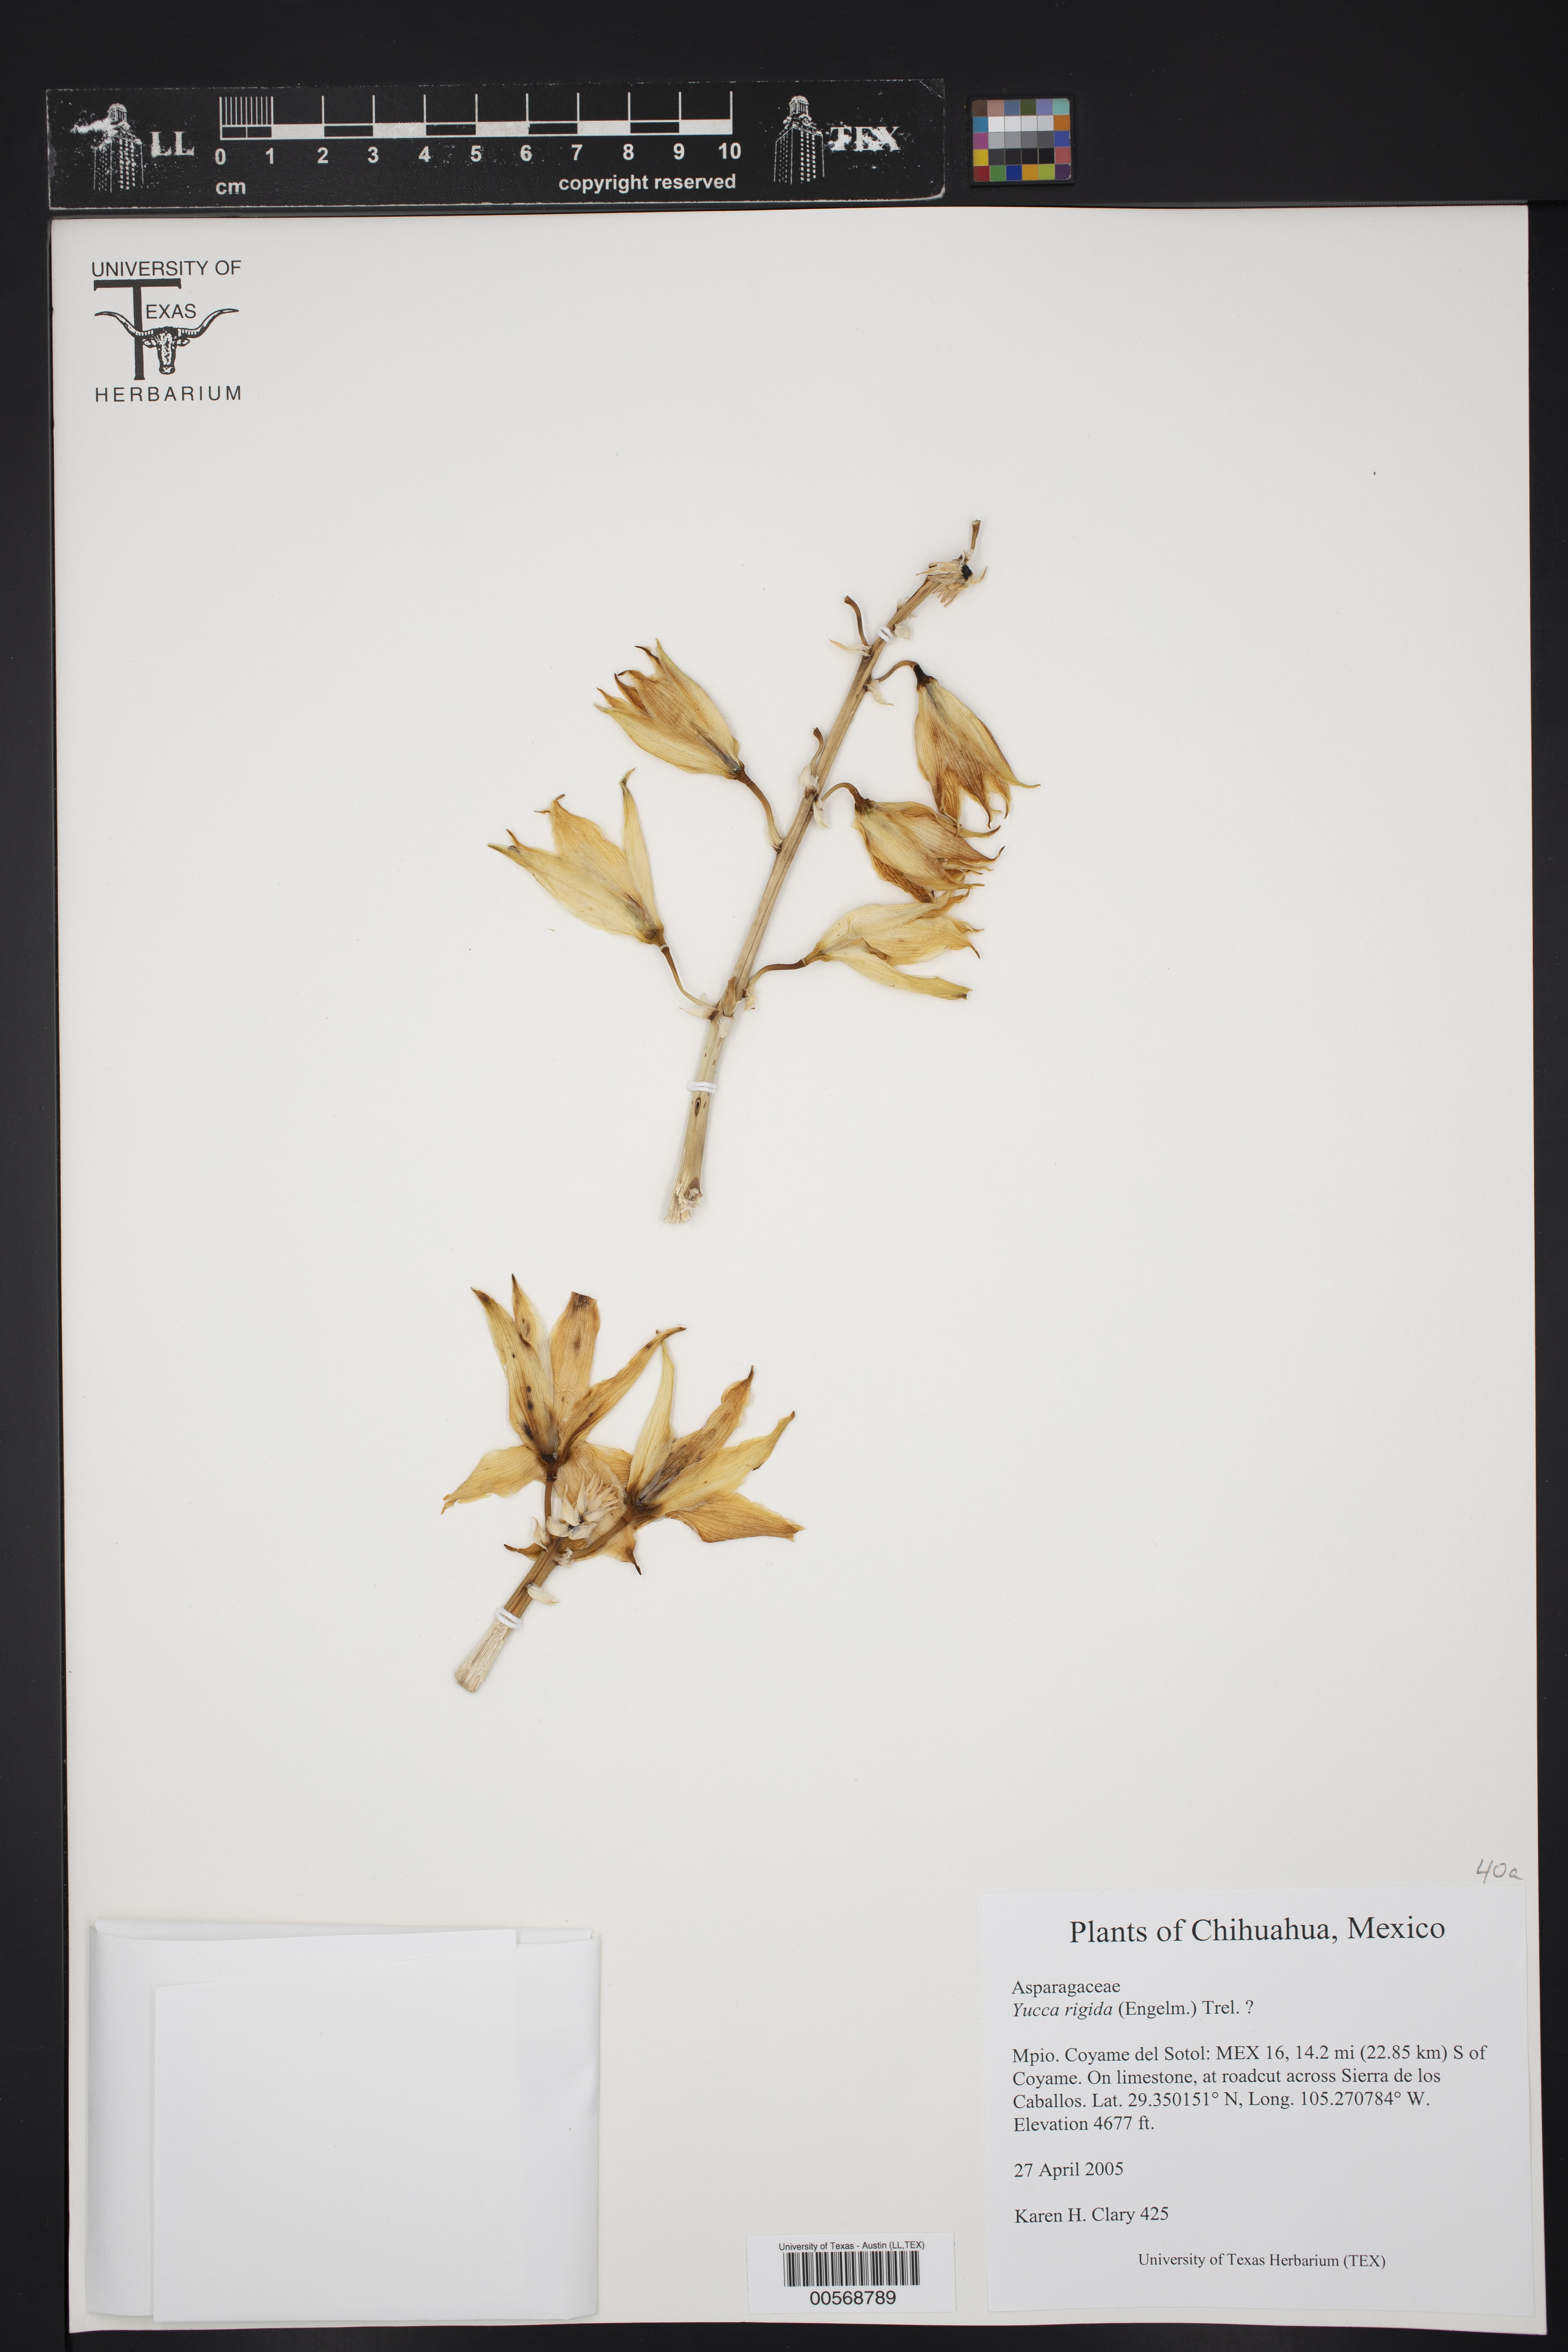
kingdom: Plantae
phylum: Tracheophyta
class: Liliopsida
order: Asparagales
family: Asparagaceae
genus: Yucca
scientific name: Yucca
